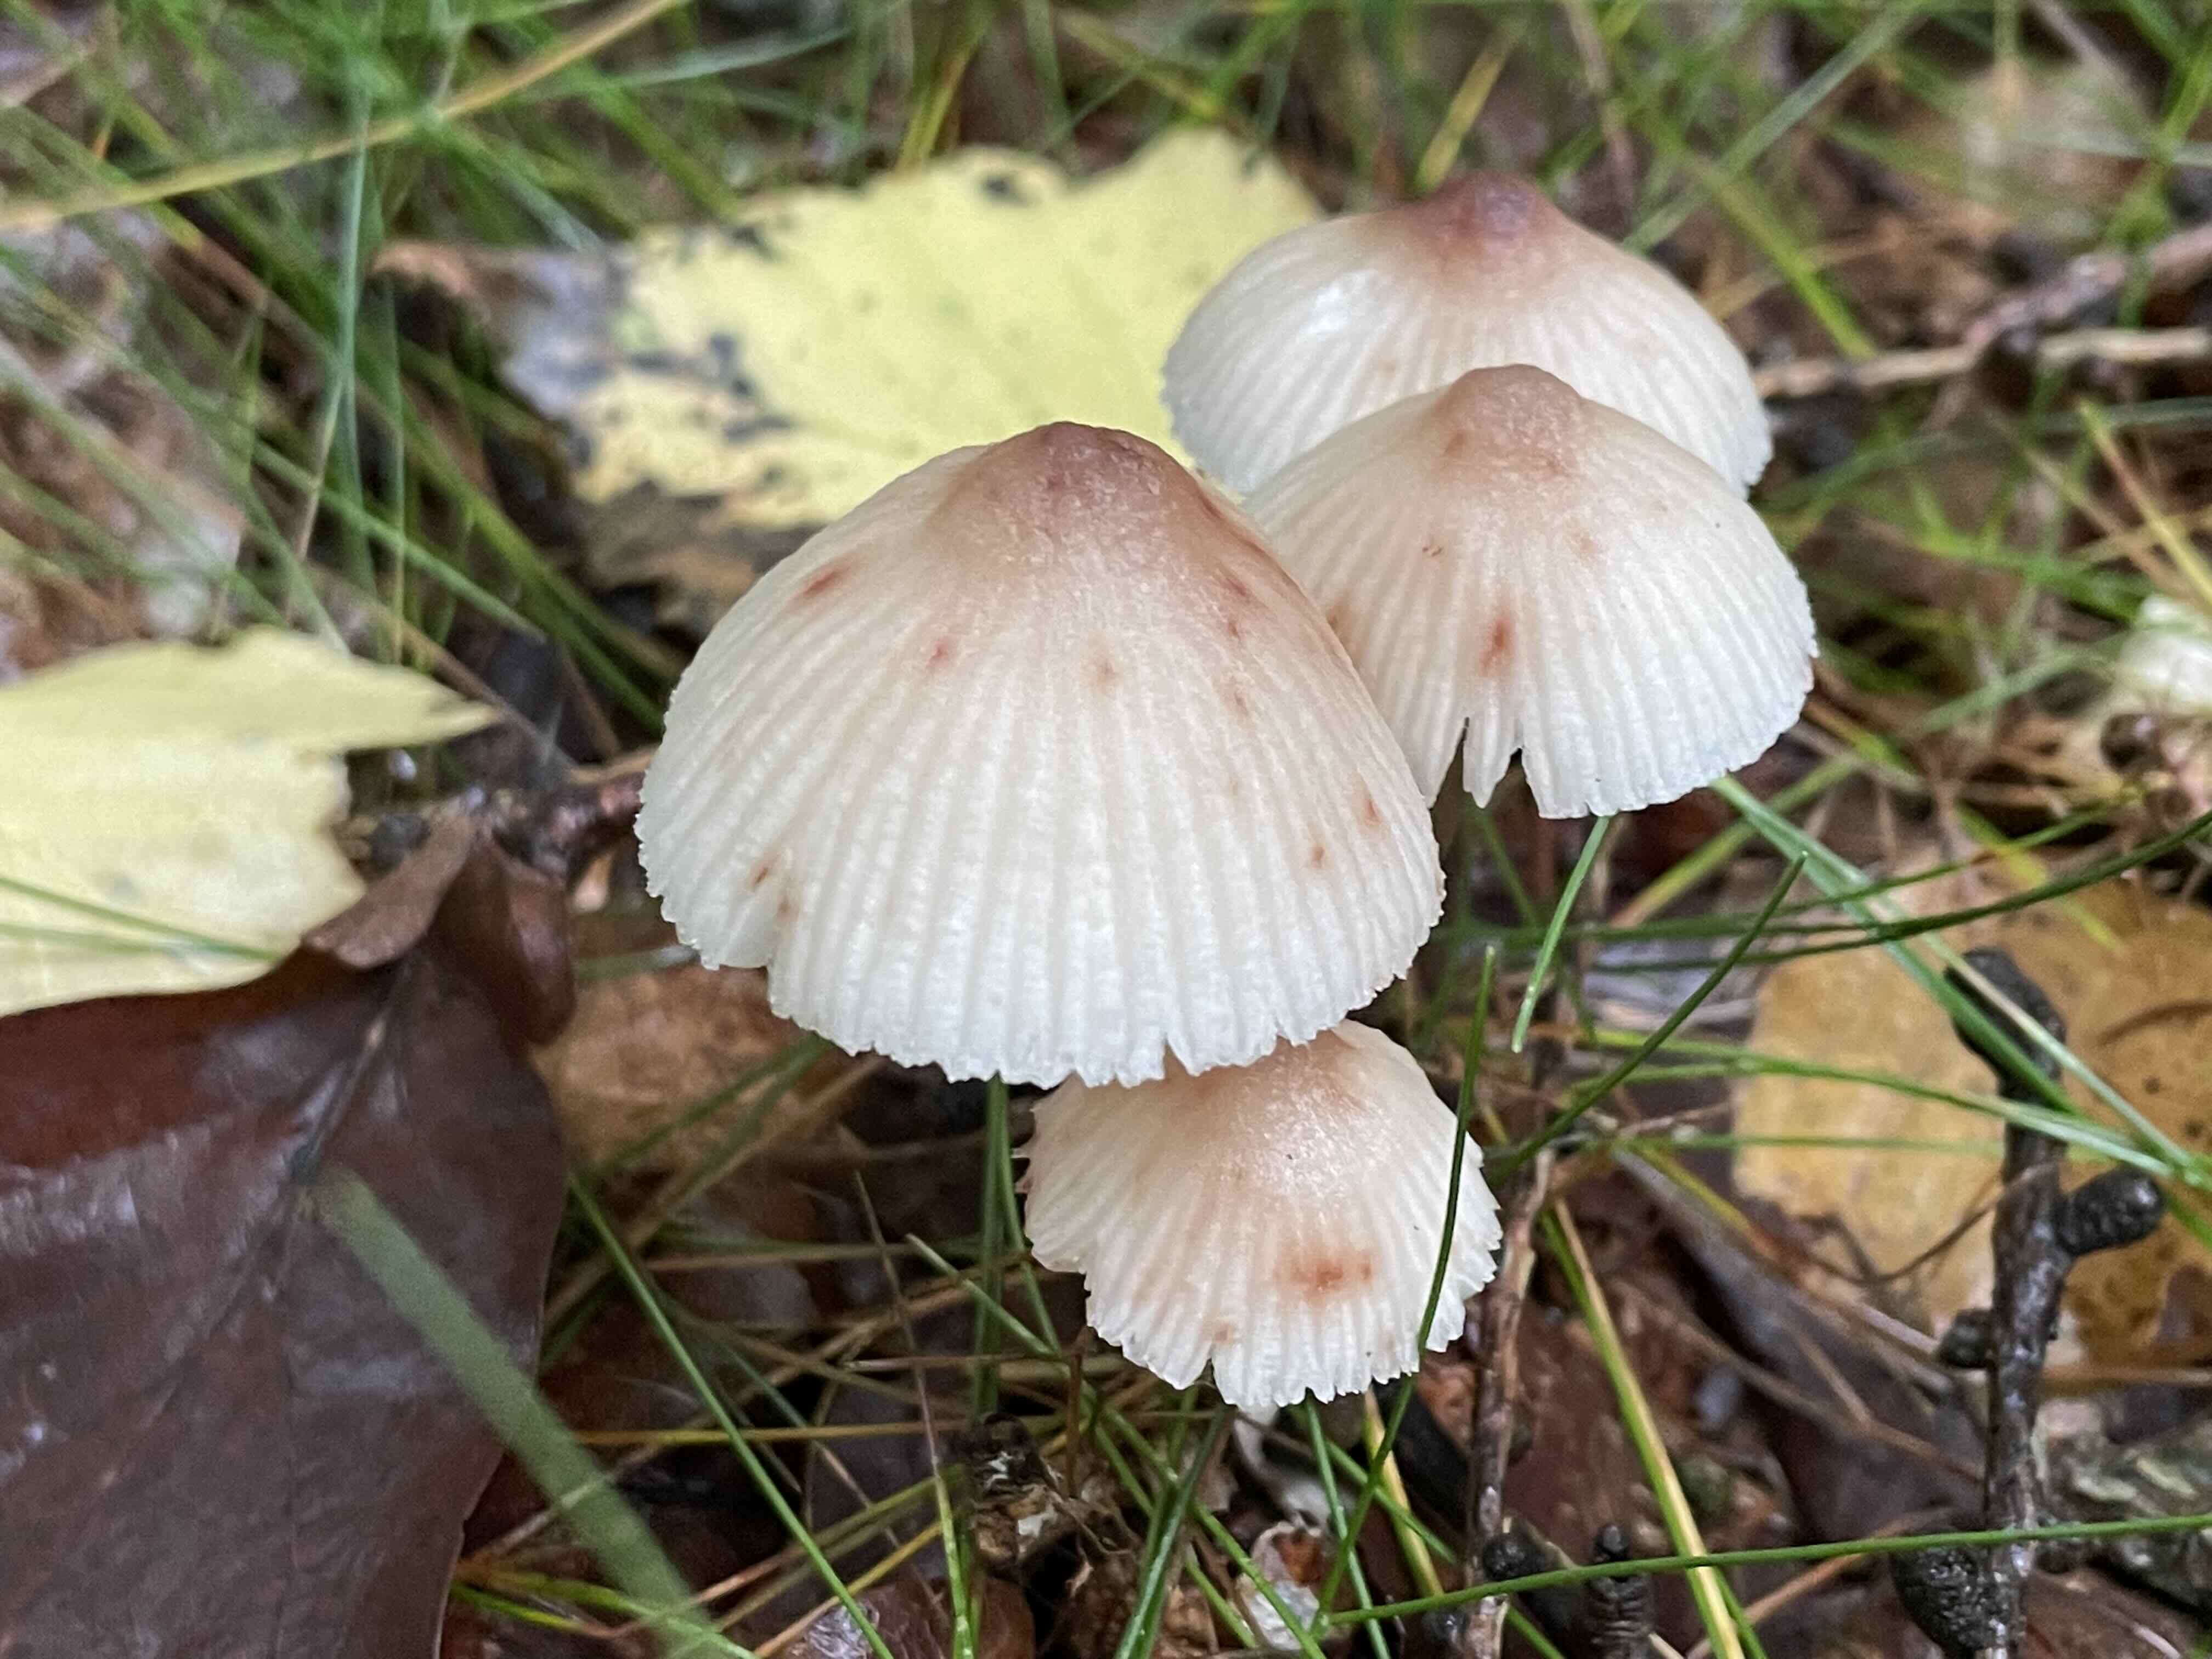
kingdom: Fungi
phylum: Basidiomycota
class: Agaricomycetes
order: Agaricales
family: Mycenaceae
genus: Mycena
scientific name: Mycena zephirus
